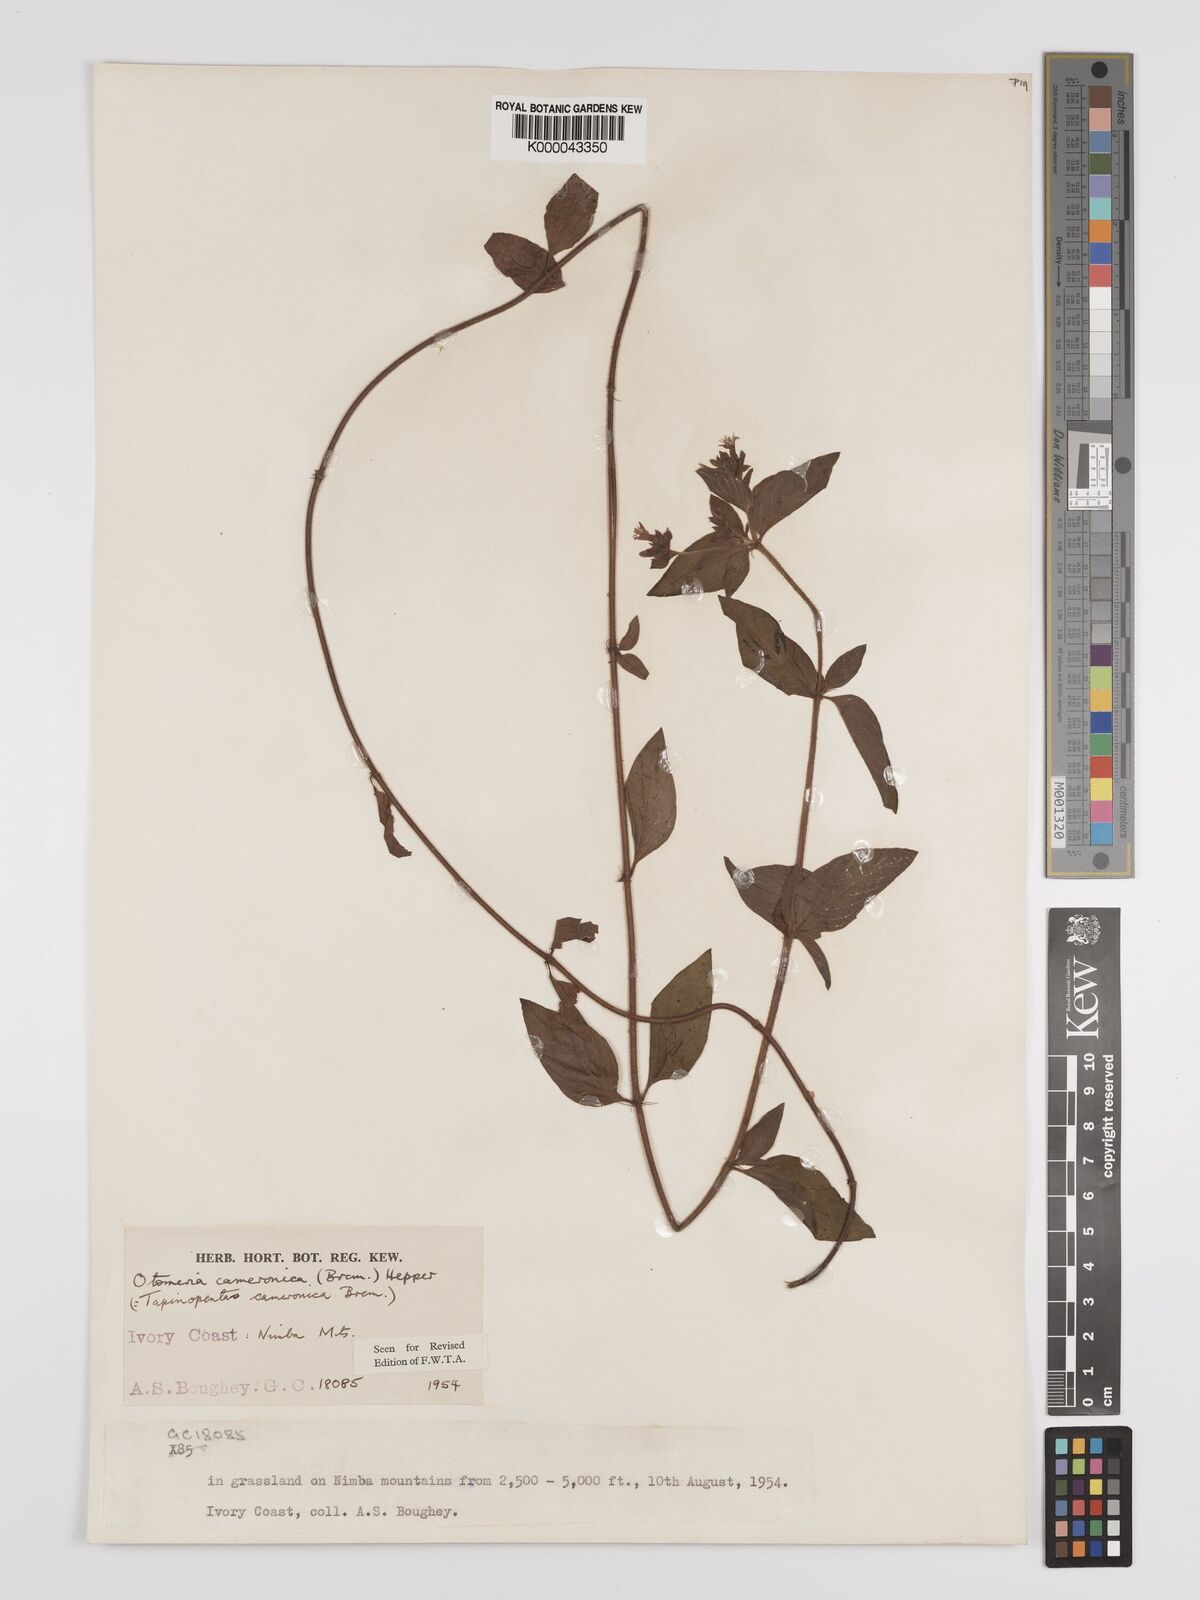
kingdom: Plantae
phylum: Tracheophyta
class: Magnoliopsida
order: Gentianales
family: Rubiaceae
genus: Otomeria
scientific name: Otomeria cameronica
